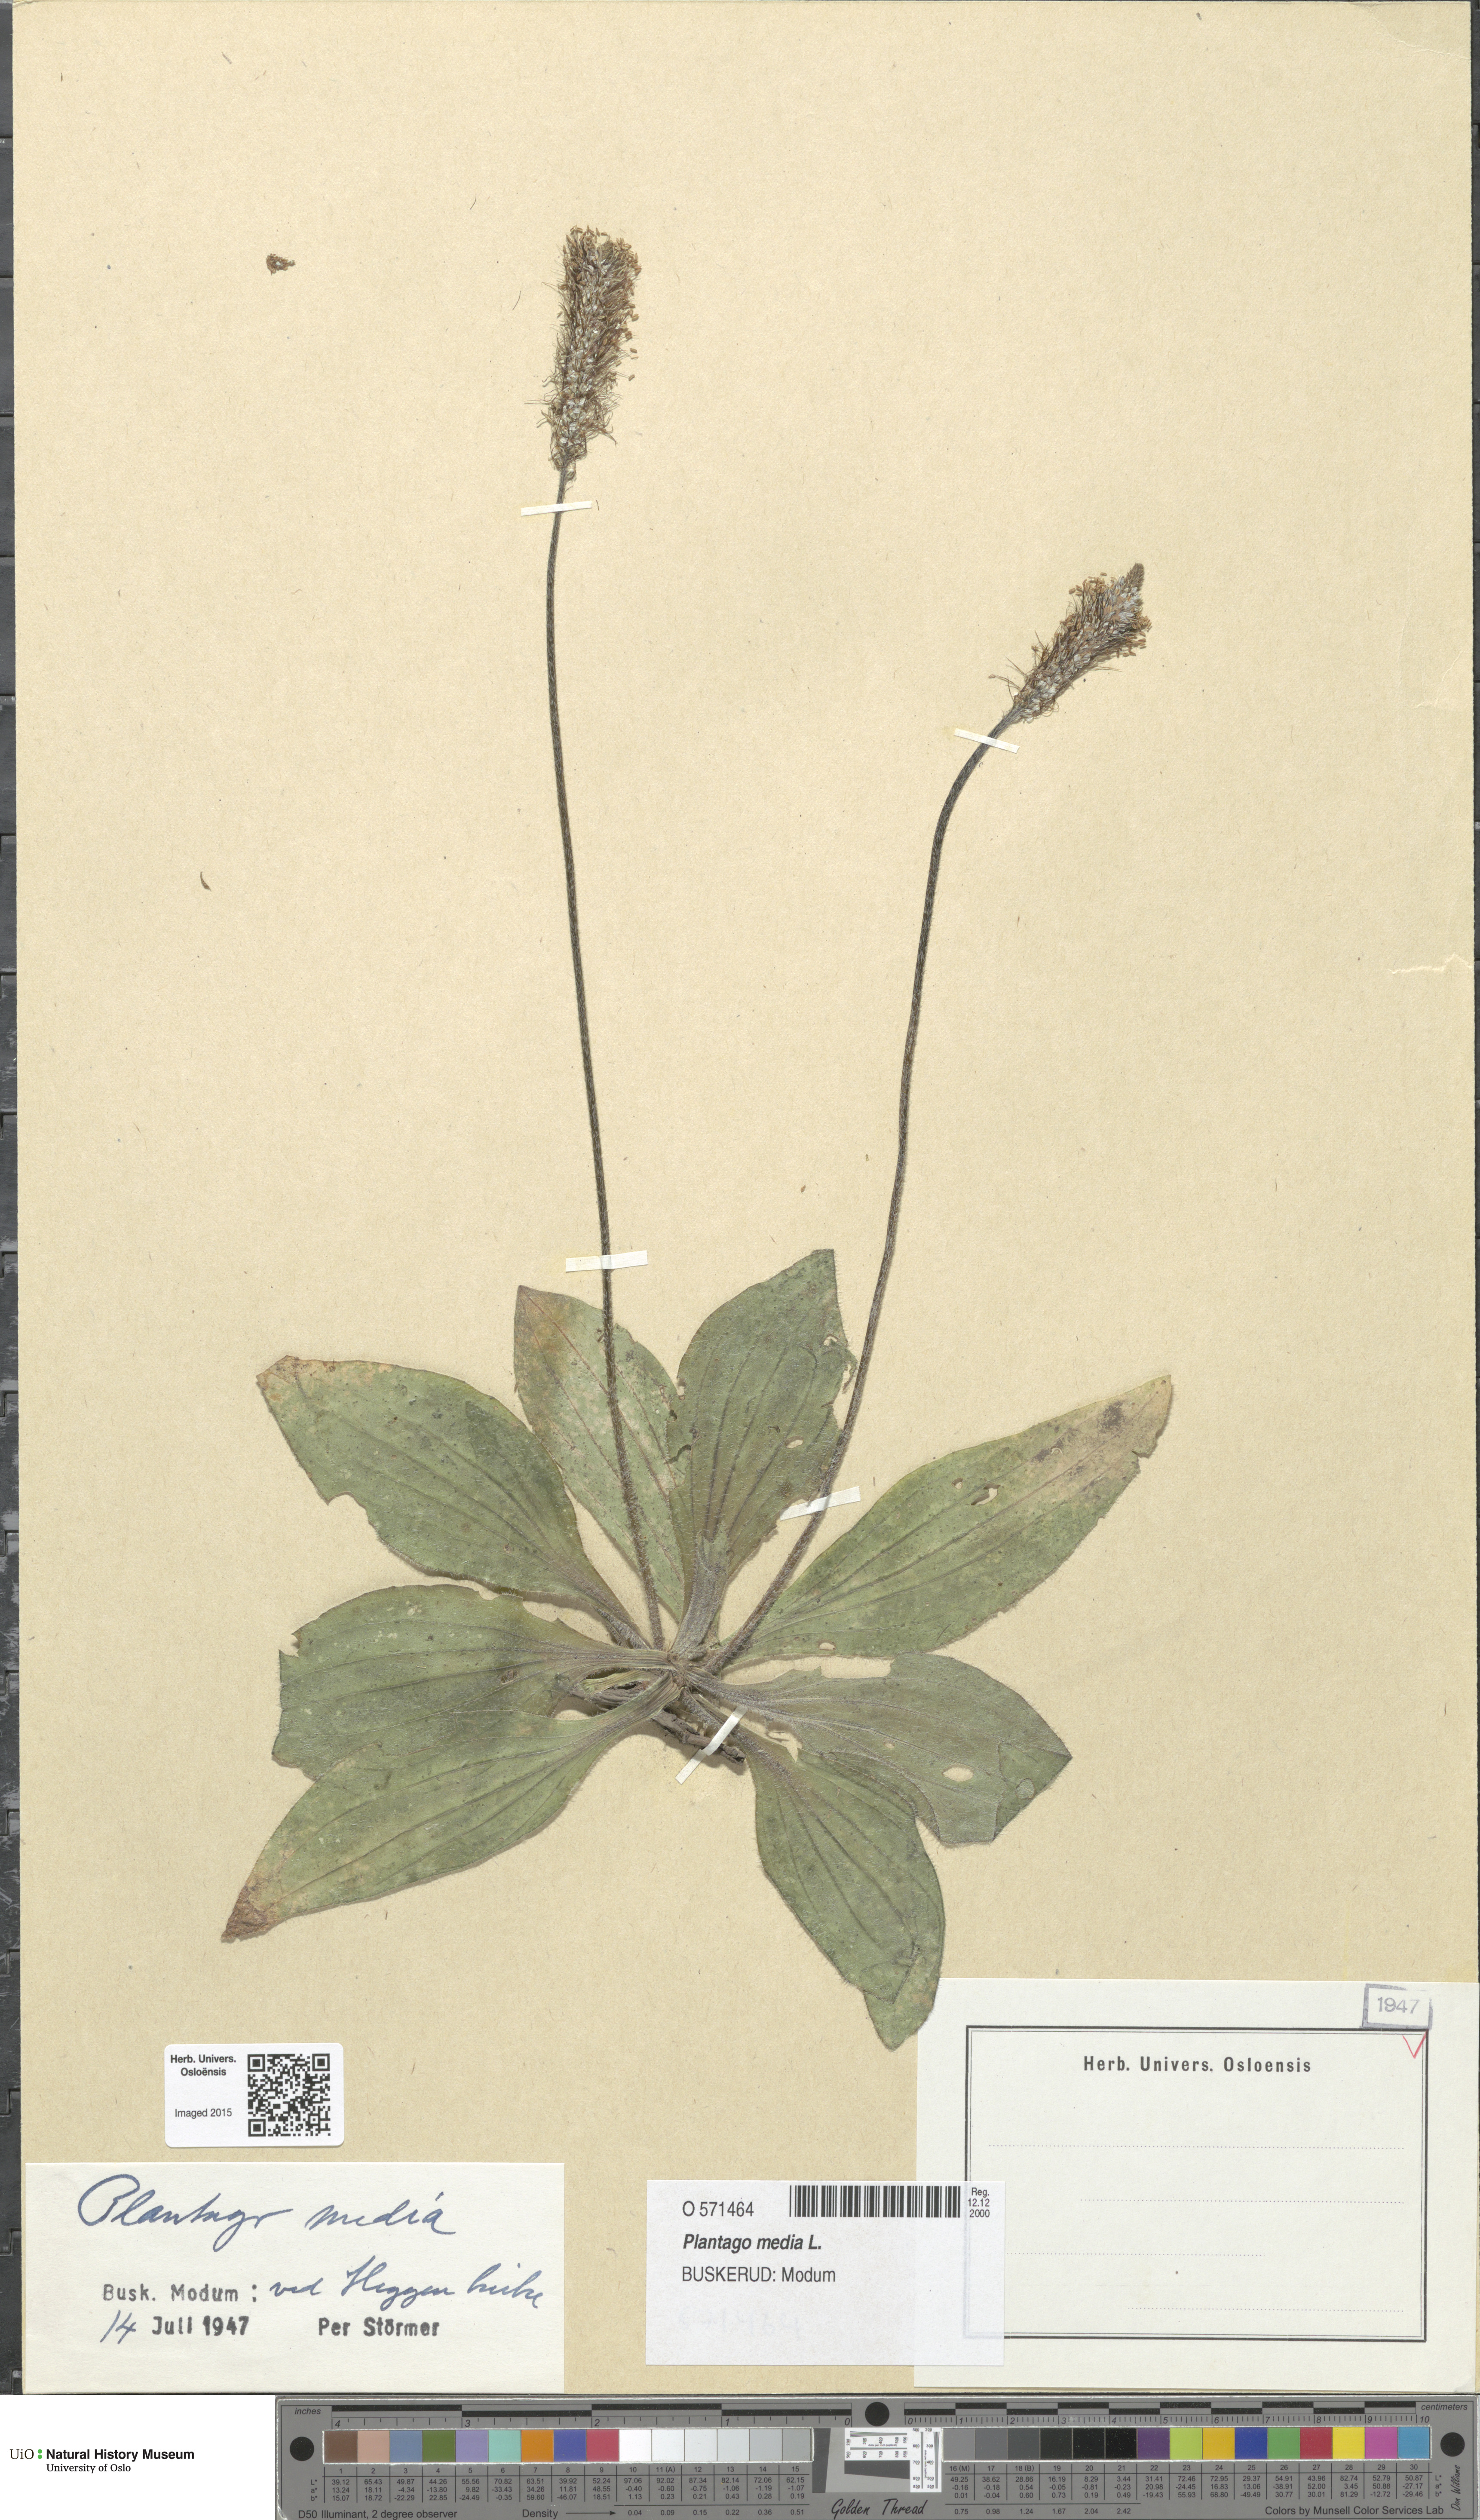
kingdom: Plantae
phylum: Tracheophyta
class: Magnoliopsida
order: Lamiales
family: Plantaginaceae
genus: Plantago
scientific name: Plantago media
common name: Hoary plantain
